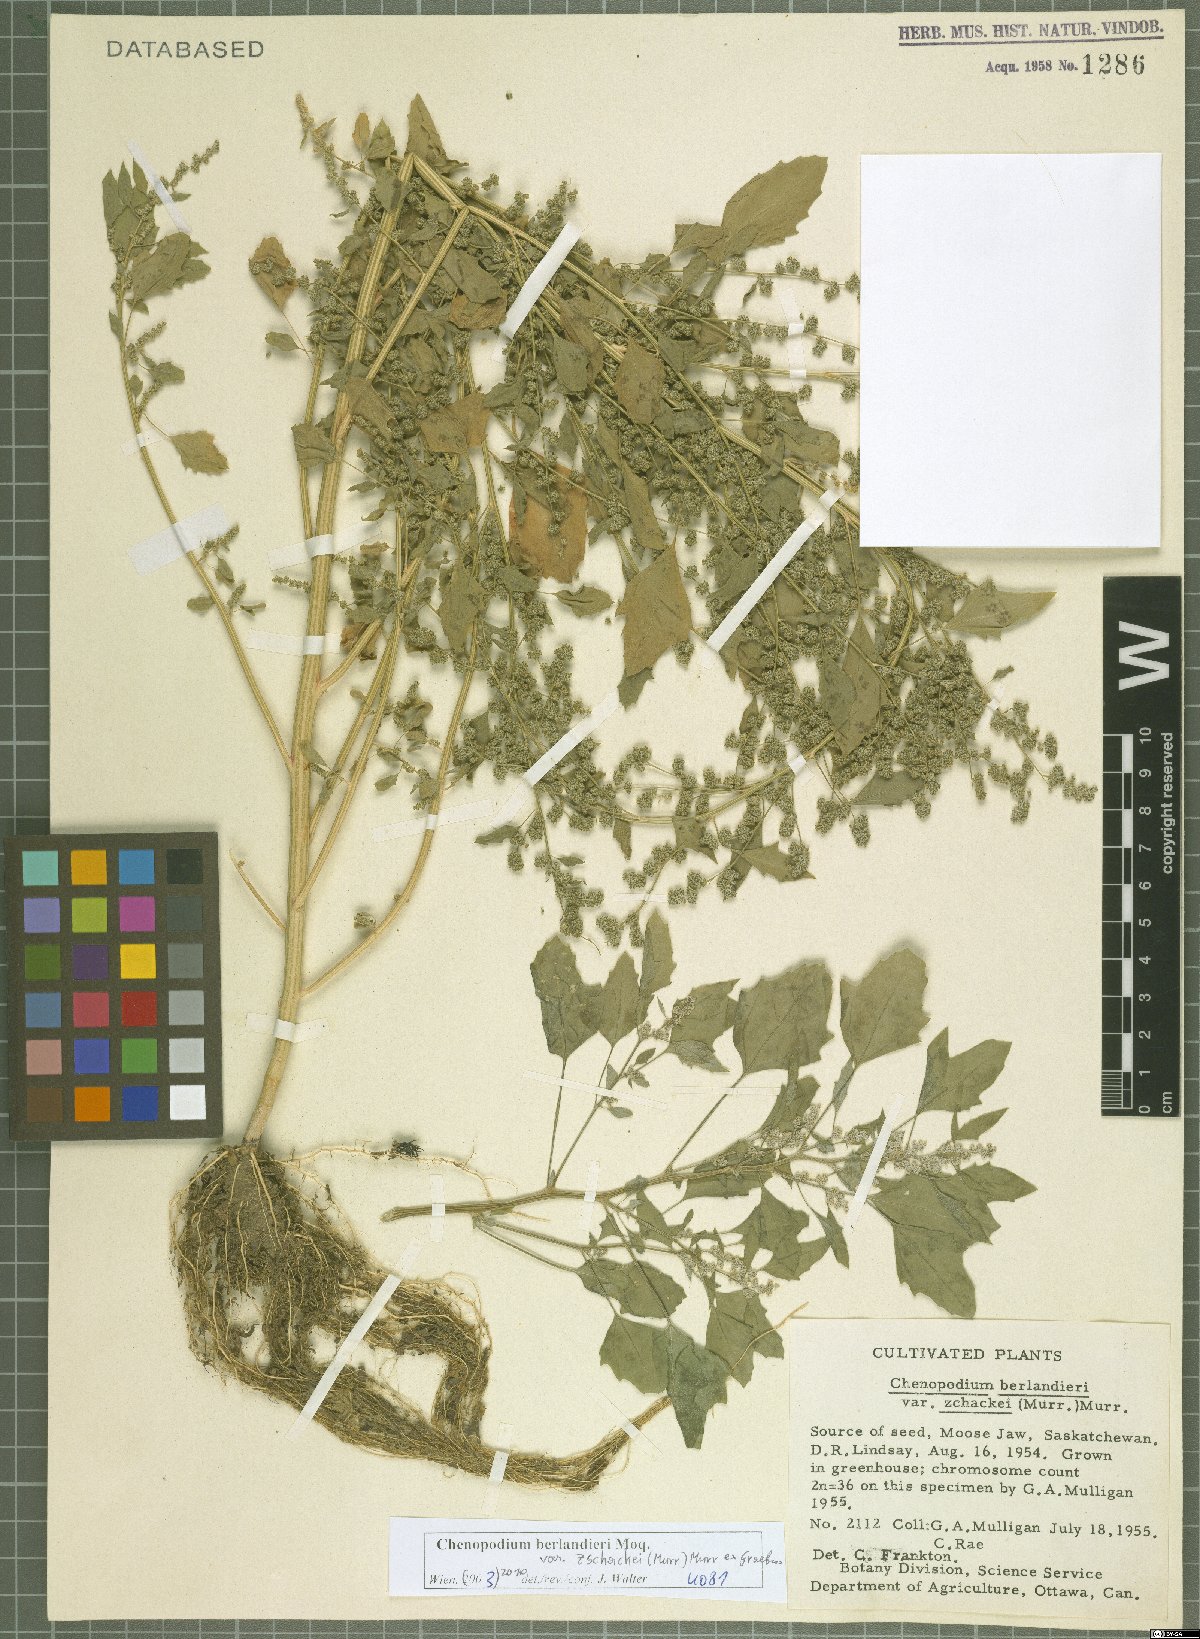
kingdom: Plantae
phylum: Tracheophyta
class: Magnoliopsida
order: Caryophyllales
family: Amaranthaceae
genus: Chenopodium
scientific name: Chenopodium berlandieri
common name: Pit-seed goosefoot
